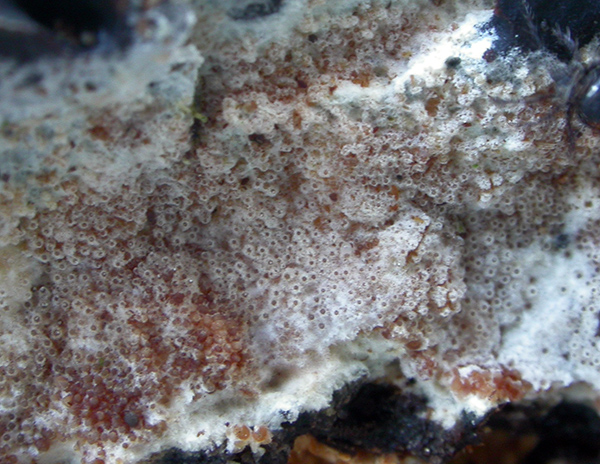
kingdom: Fungi
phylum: Ascomycota
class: Sordariomycetes
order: Hypocreales
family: Hypocreaceae
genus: Sphaerostilbella
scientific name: Sphaerostilbella broomeana
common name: rodfordærver-snylteskorpe
